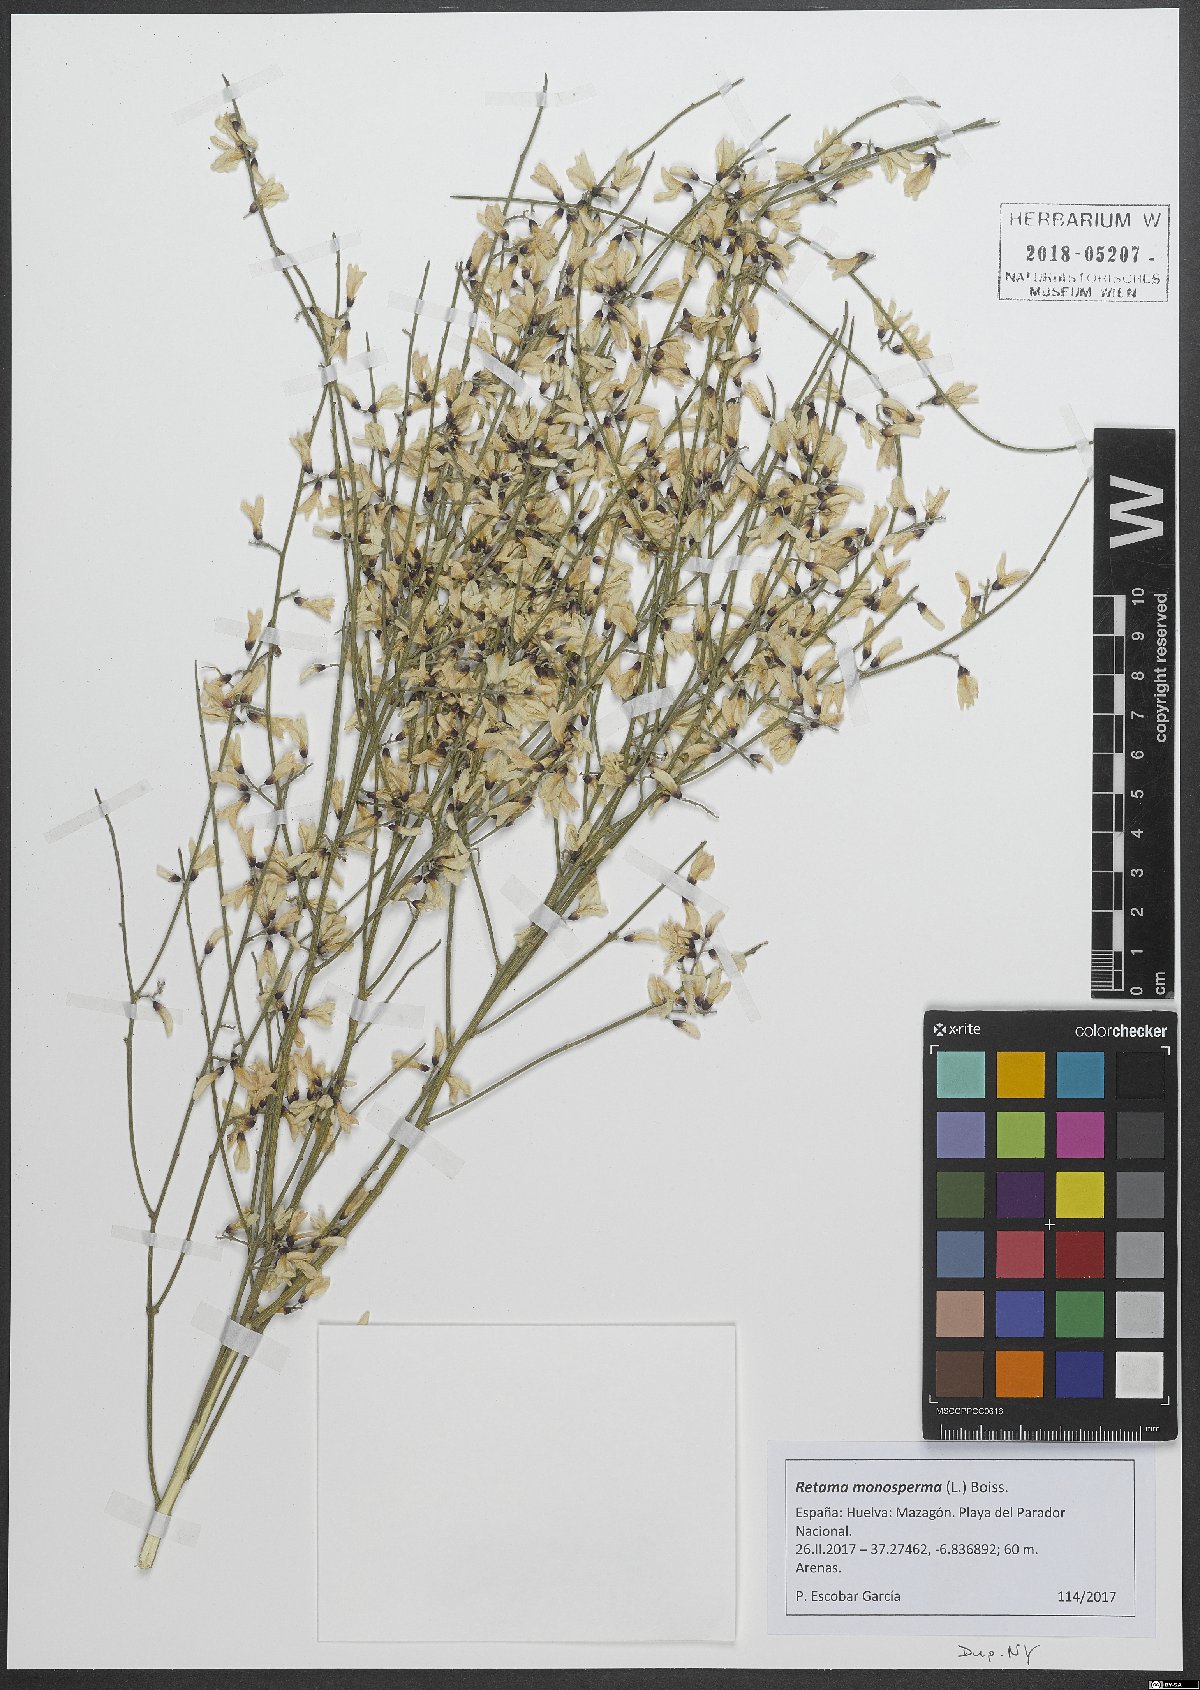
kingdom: Plantae
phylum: Tracheophyta
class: Magnoliopsida
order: Fabales
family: Fabaceae
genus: Retama
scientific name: Retama monosperma
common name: Bridal broom
